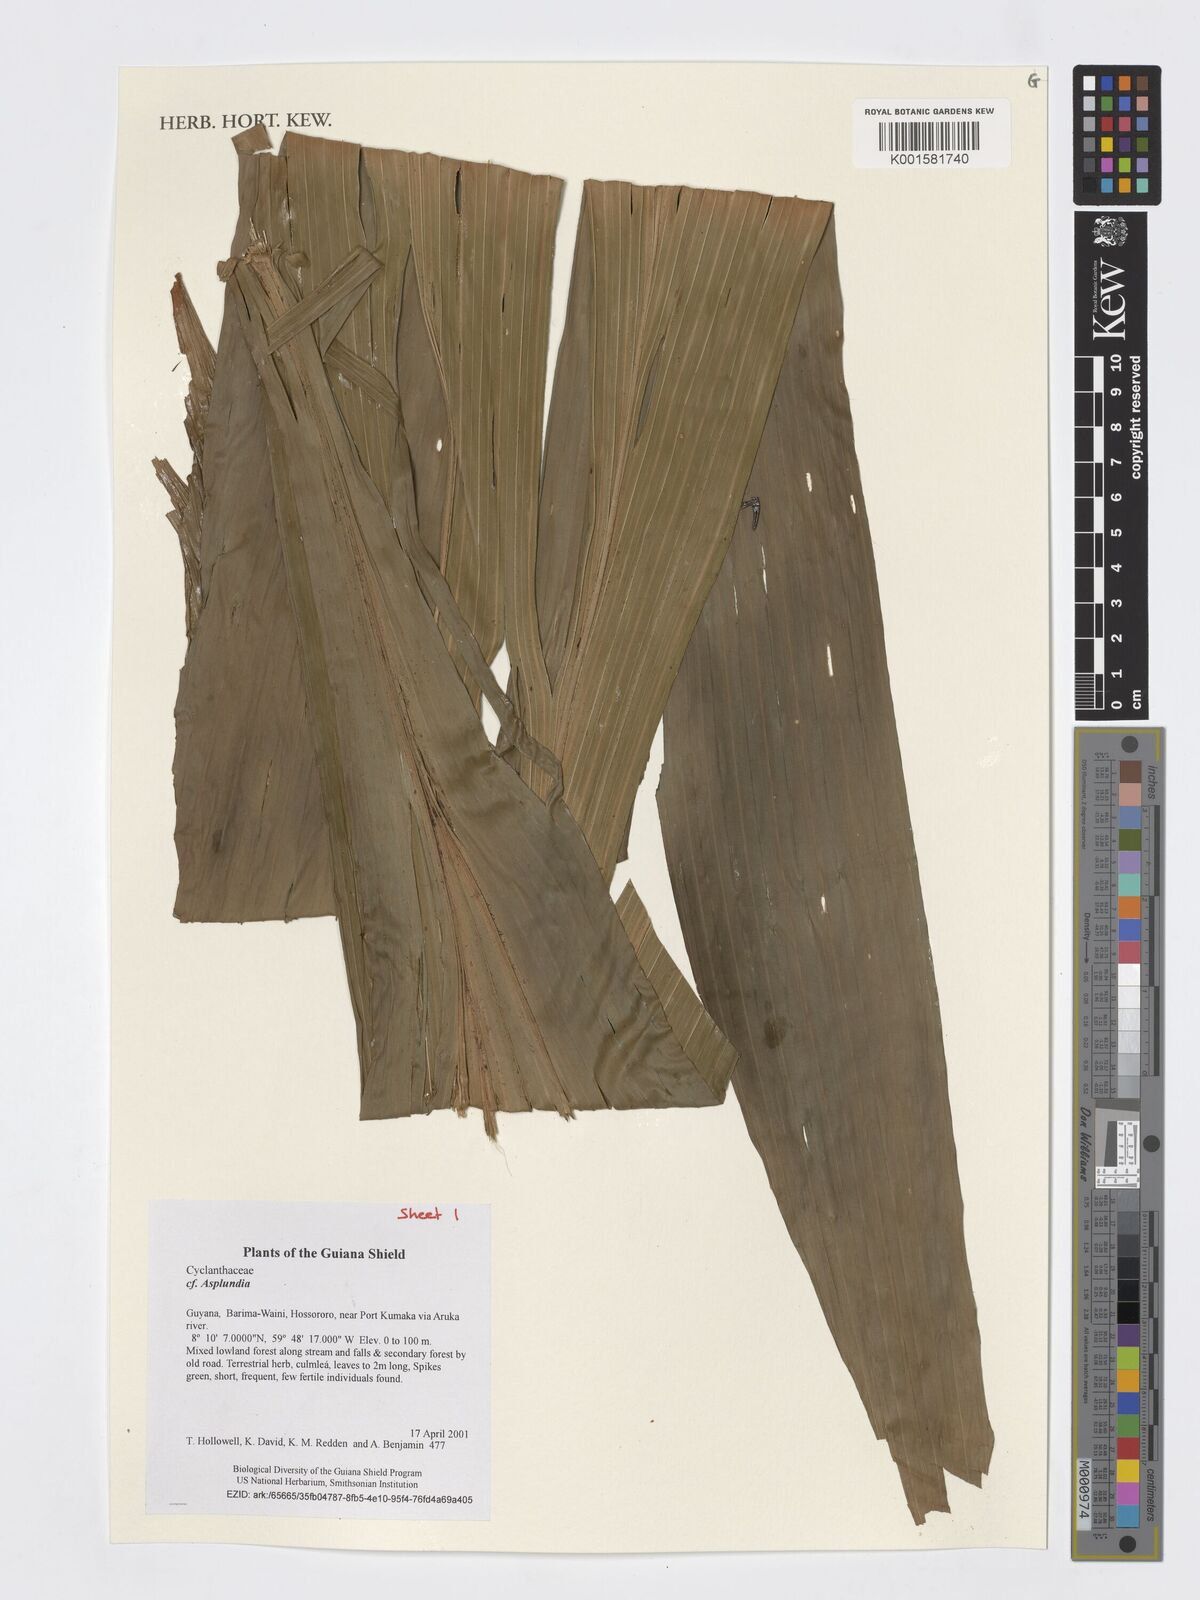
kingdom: Plantae
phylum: Tracheophyta
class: Liliopsida
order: Pandanales
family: Cyclanthaceae
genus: Asplundia
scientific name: Asplundia
